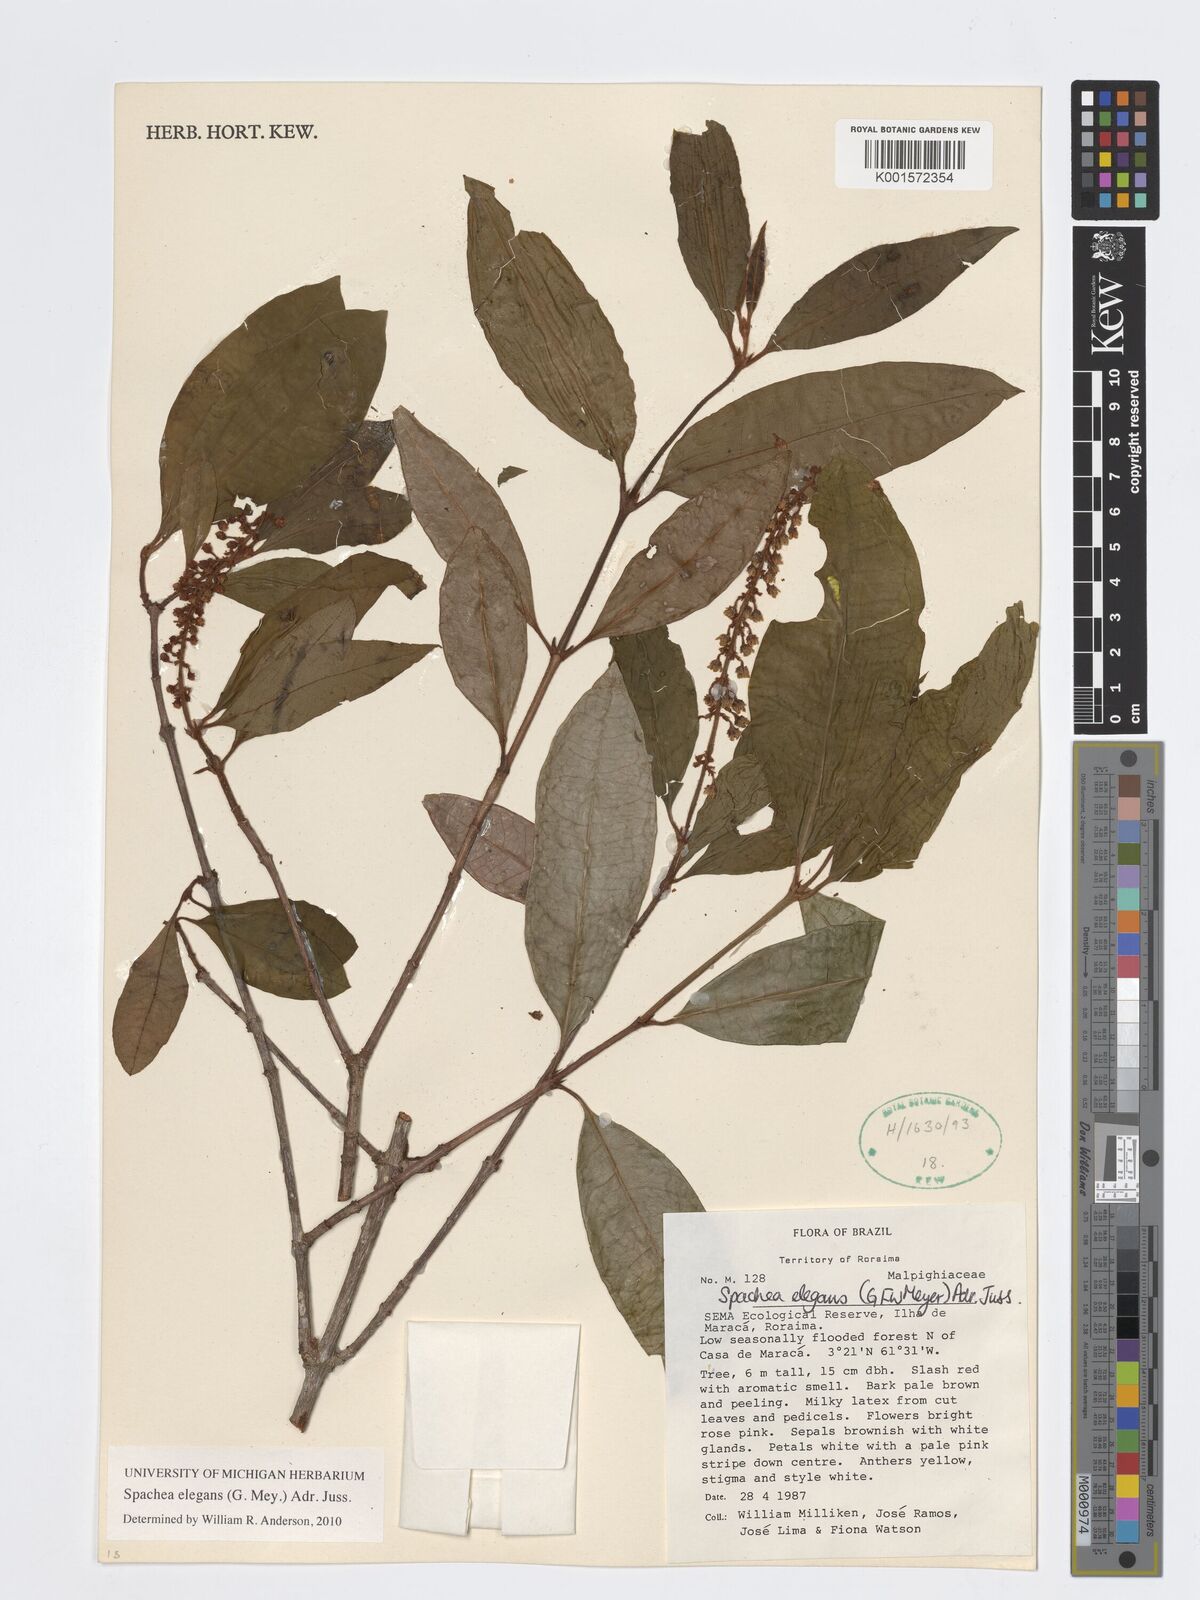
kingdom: Plantae
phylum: Tracheophyta
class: Magnoliopsida
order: Malpighiales
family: Malpighiaceae
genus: Spachea
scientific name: Spachea elegans
